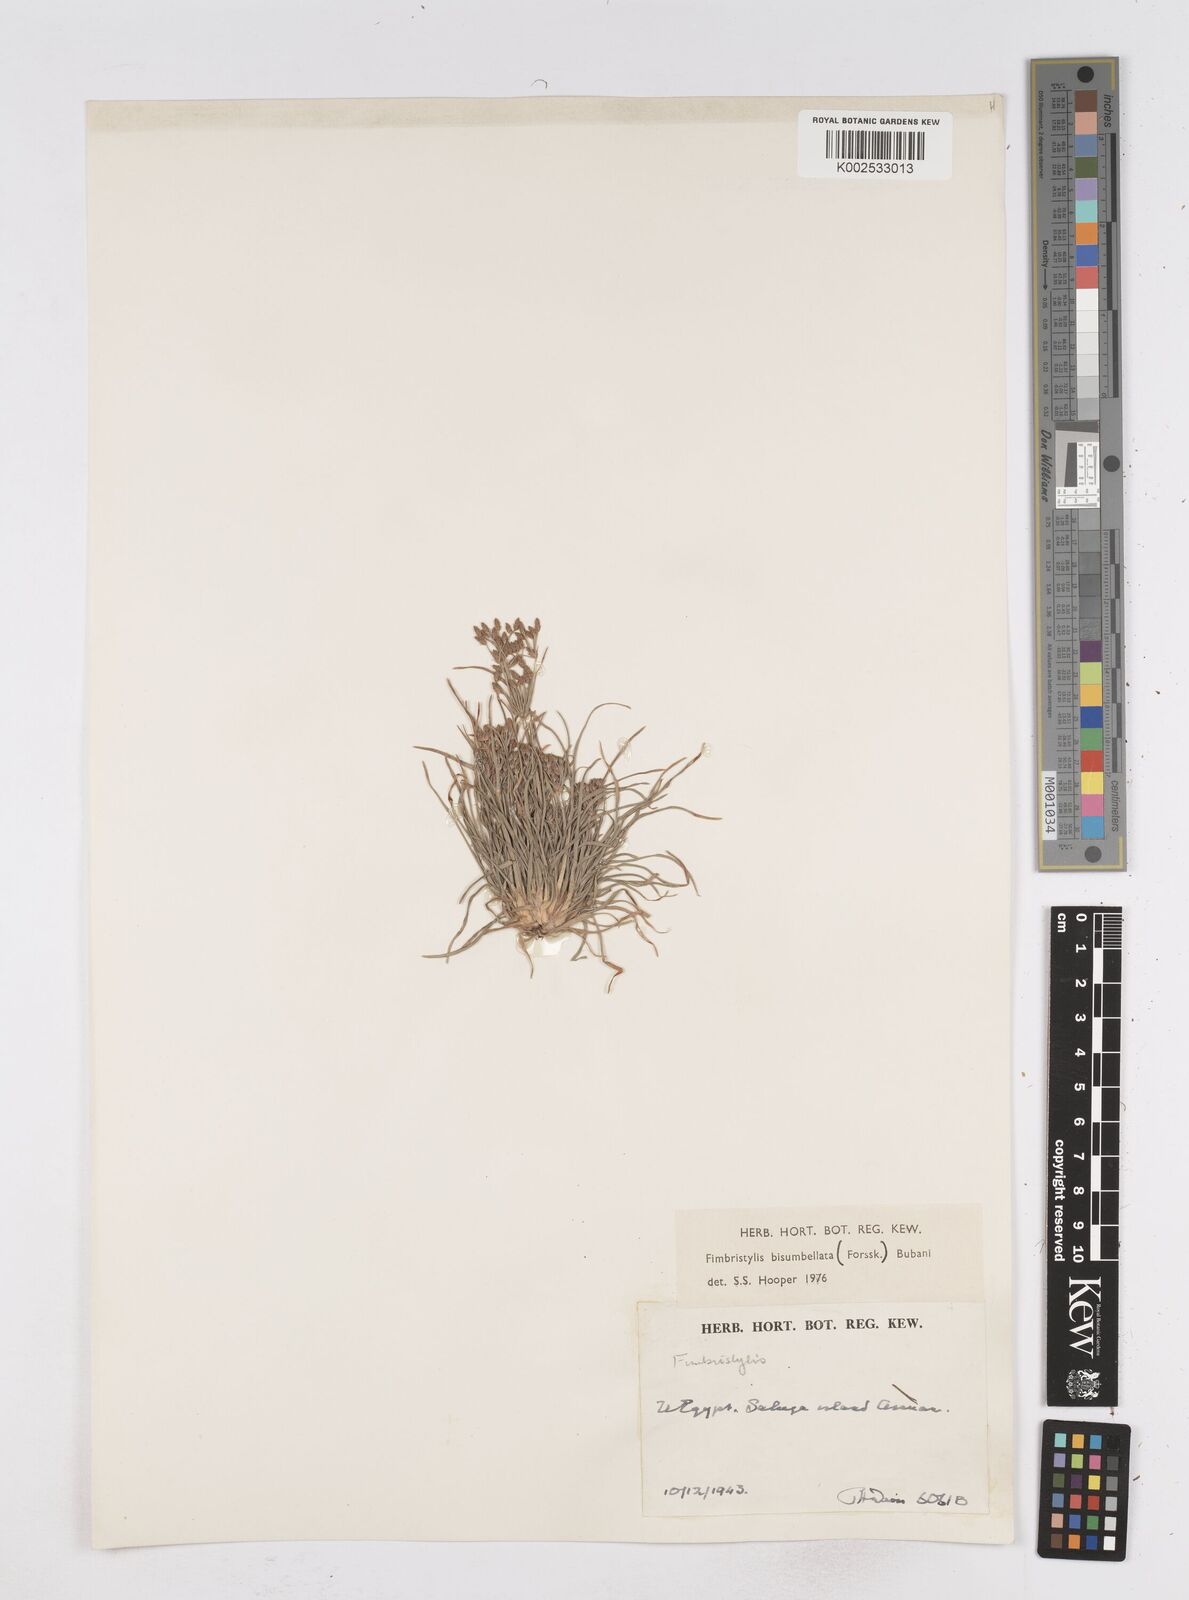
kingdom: Plantae
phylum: Tracheophyta
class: Liliopsida
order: Poales
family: Cyperaceae
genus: Fimbristylis
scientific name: Fimbristylis bisumbellata
